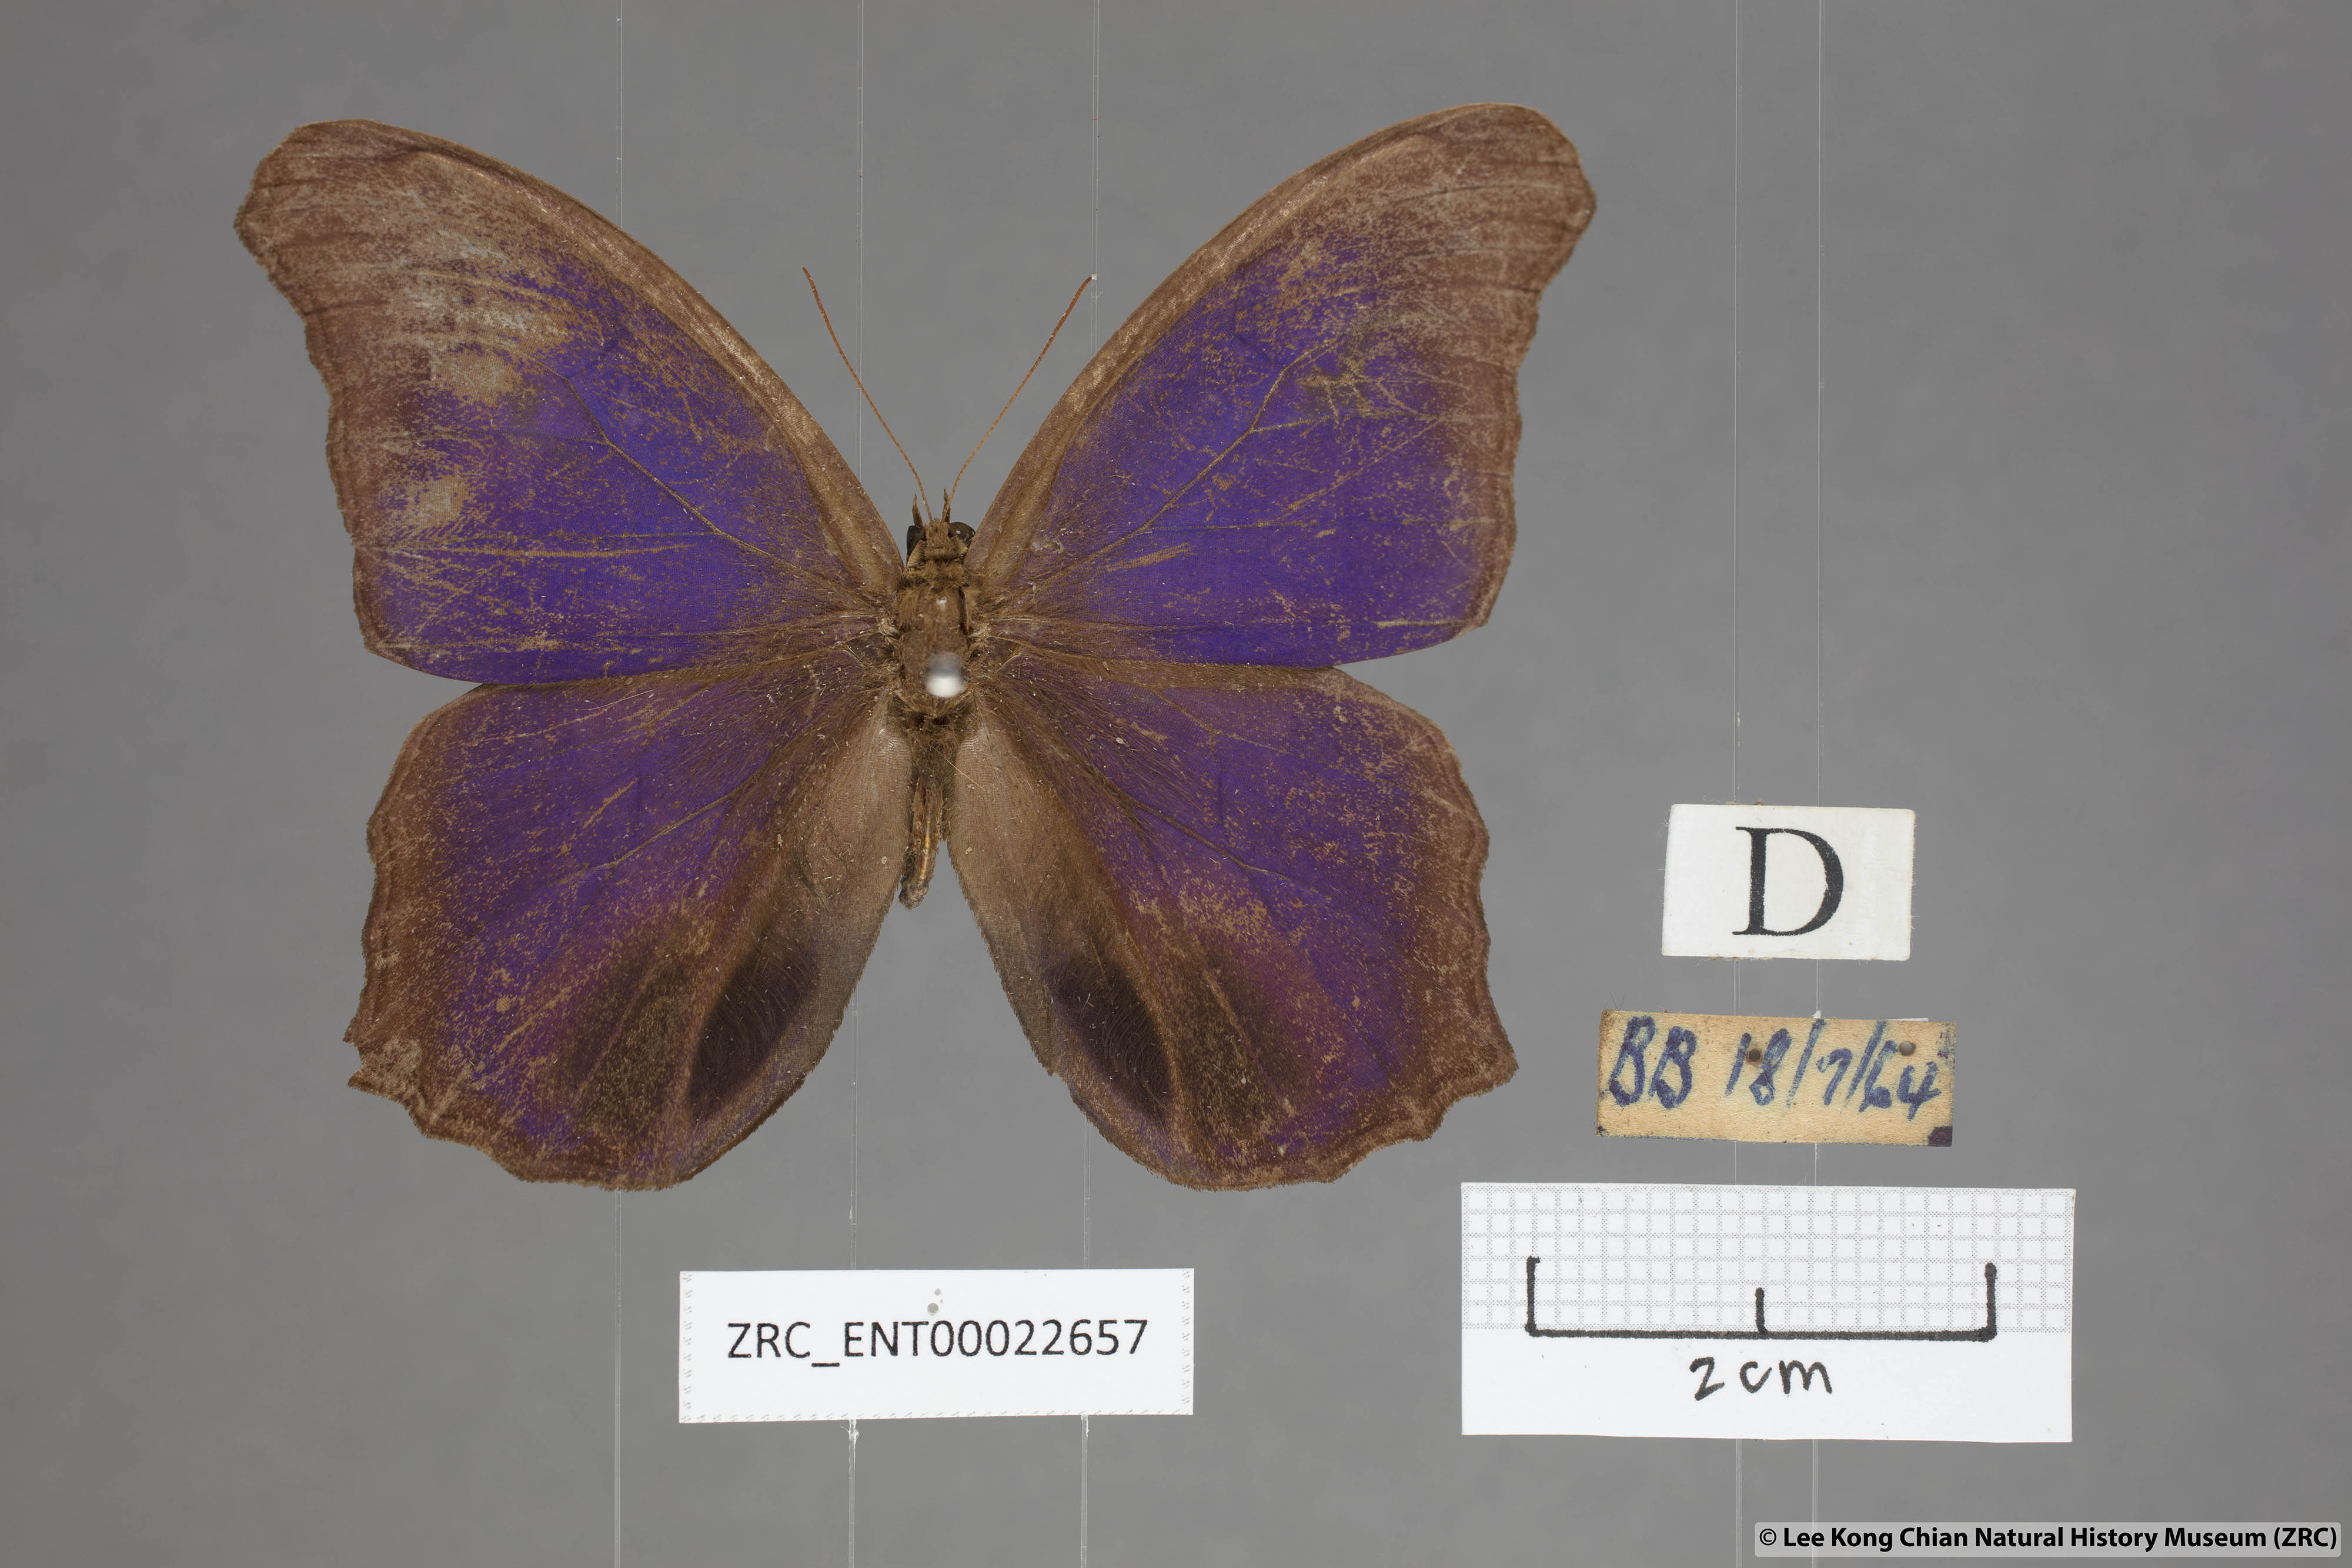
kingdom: Animalia
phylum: Arthropoda
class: Insecta
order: Lepidoptera
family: Nymphalidae
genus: Coelites
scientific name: Coelites epiminthia
